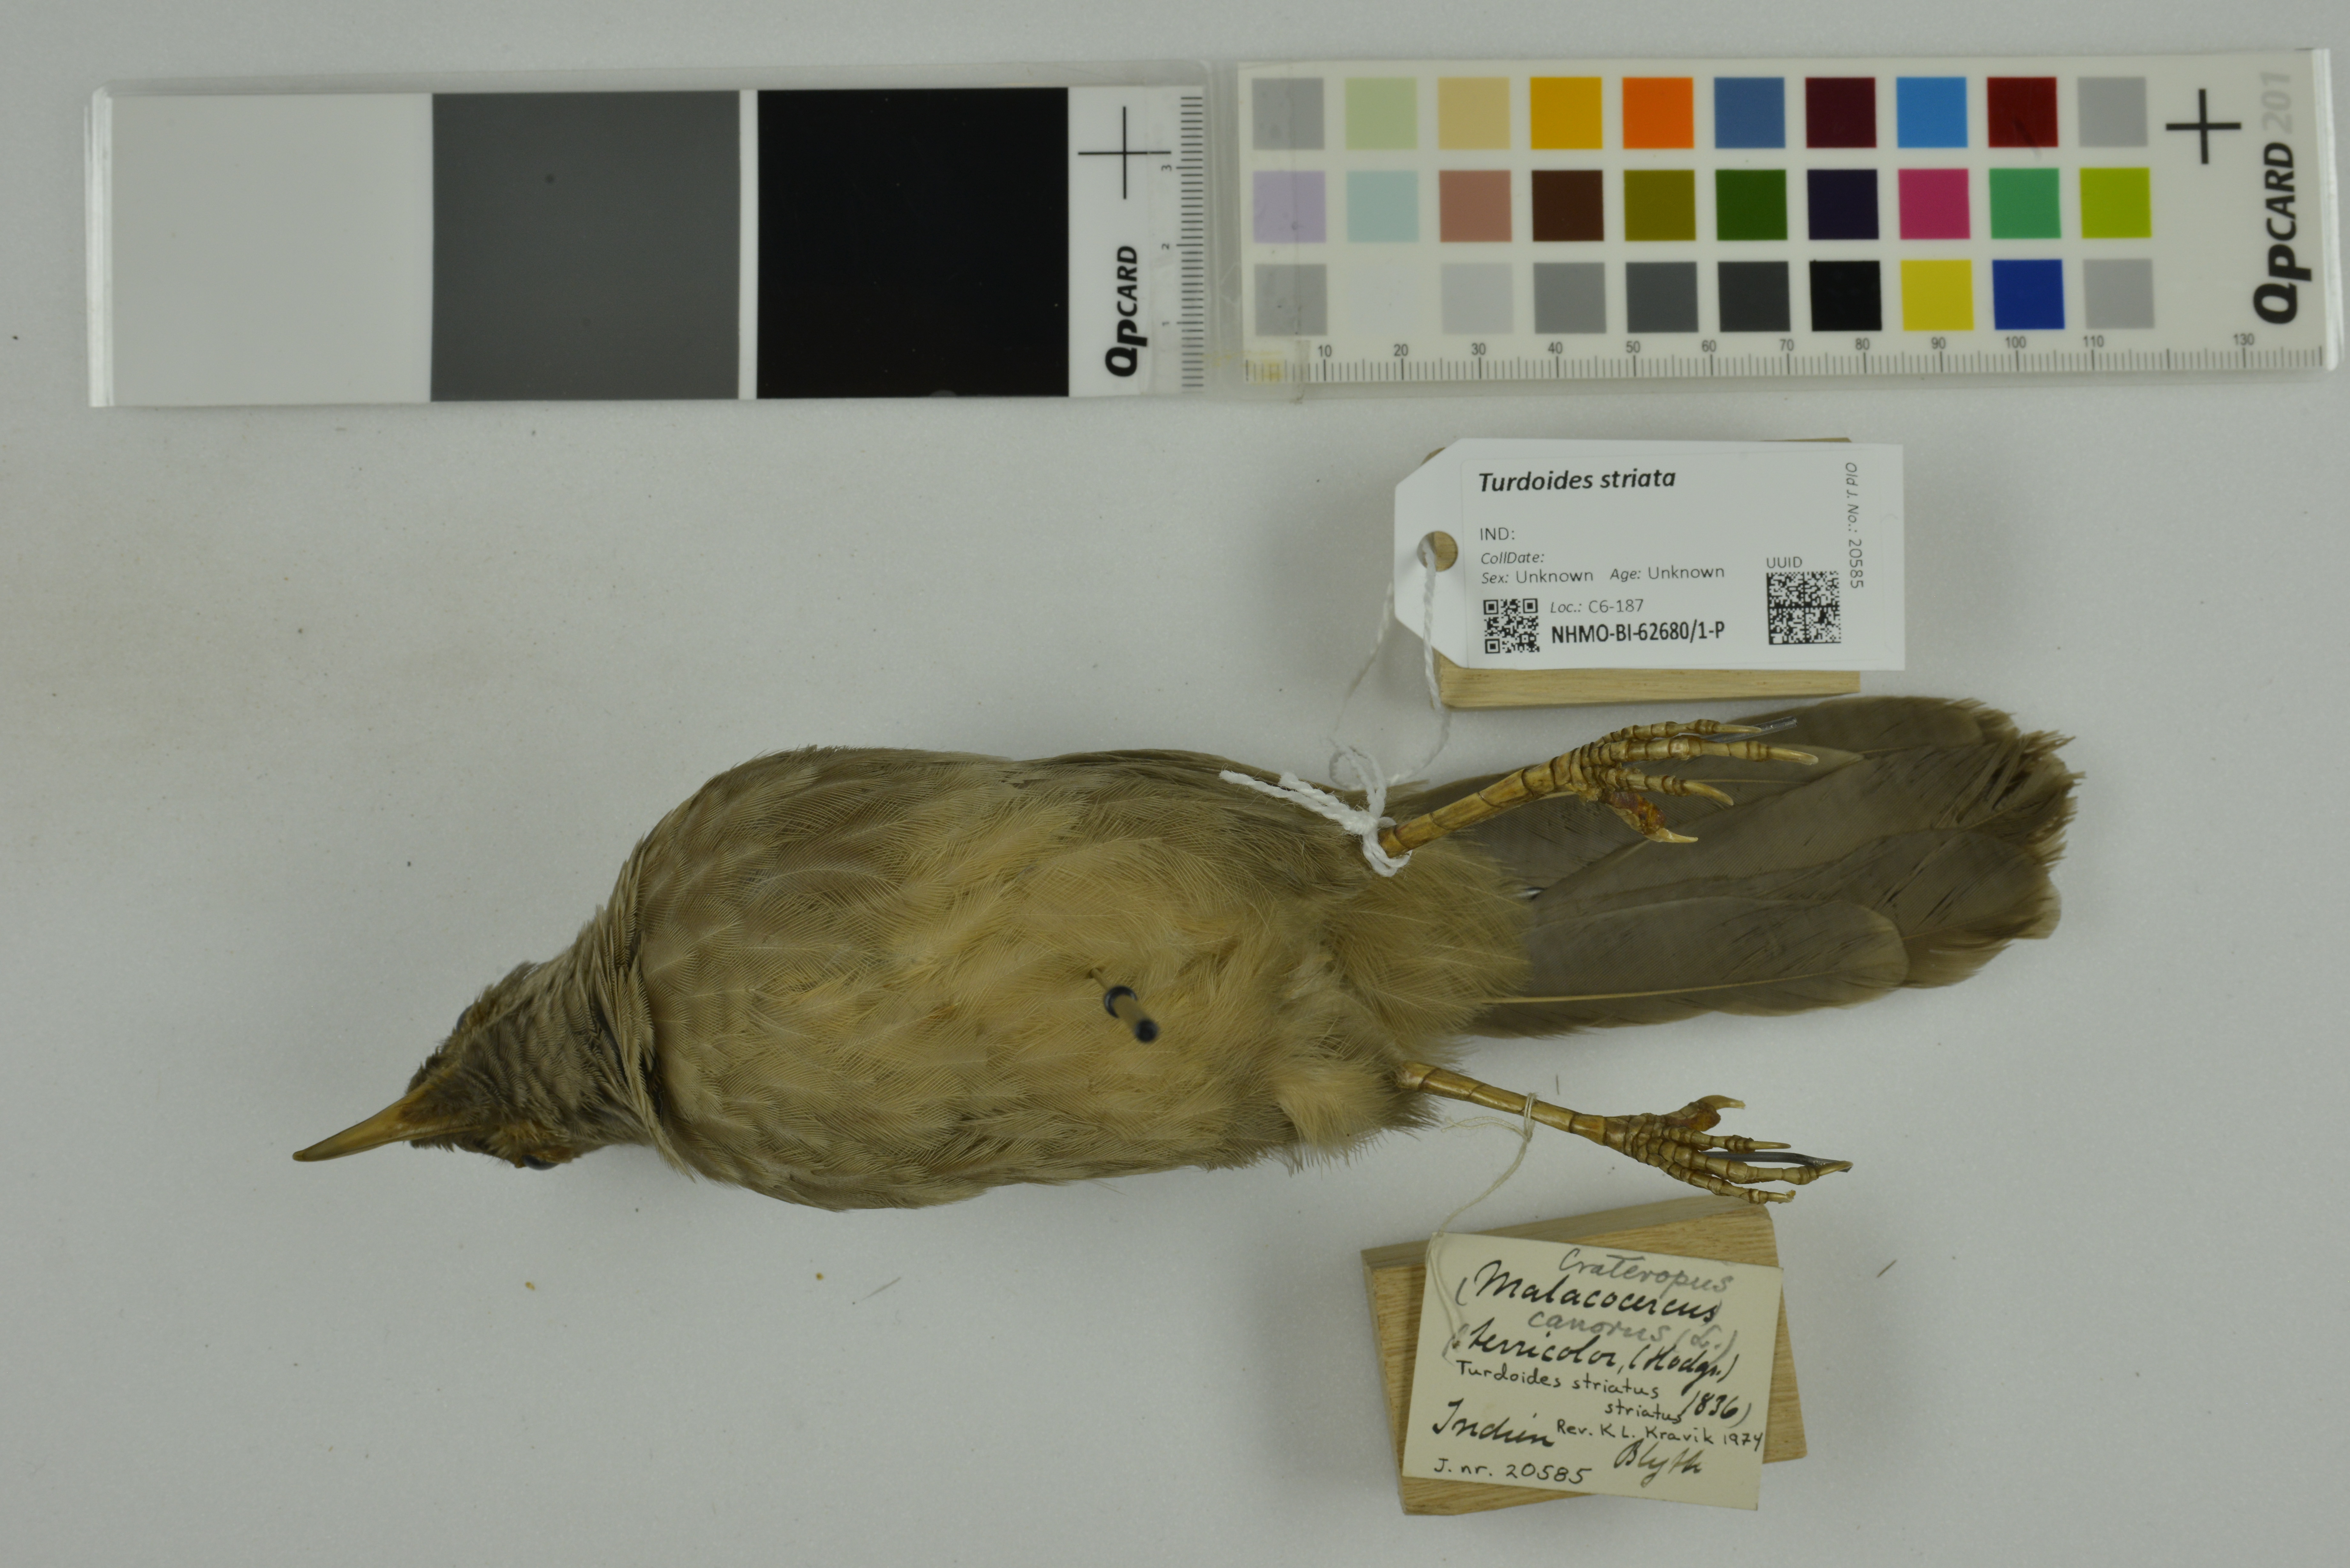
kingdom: Animalia
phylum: Chordata
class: Aves
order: Passeriformes
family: Leiothrichidae
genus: Turdoides
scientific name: Turdoides striata
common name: Jungle babbler
